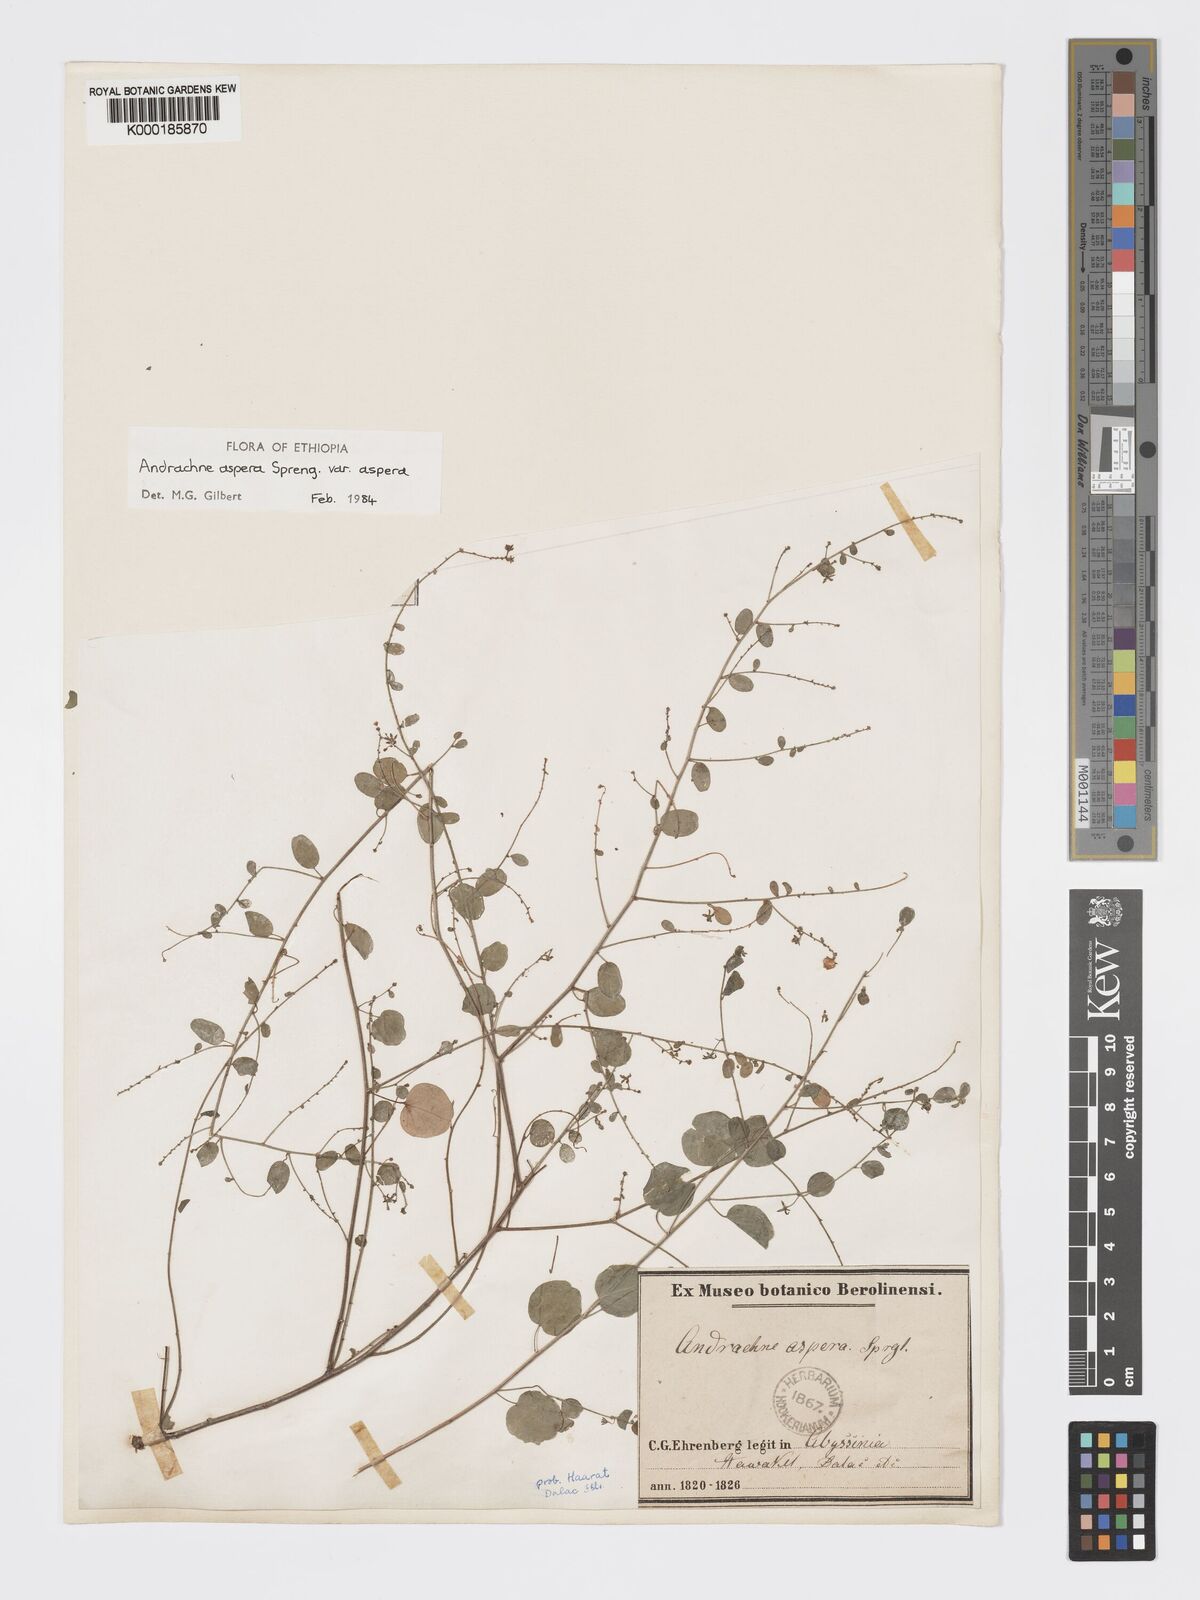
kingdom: Plantae
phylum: Tracheophyta
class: Magnoliopsida
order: Malpighiales
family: Phyllanthaceae
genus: Andrachne
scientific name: Andrachne aspera
